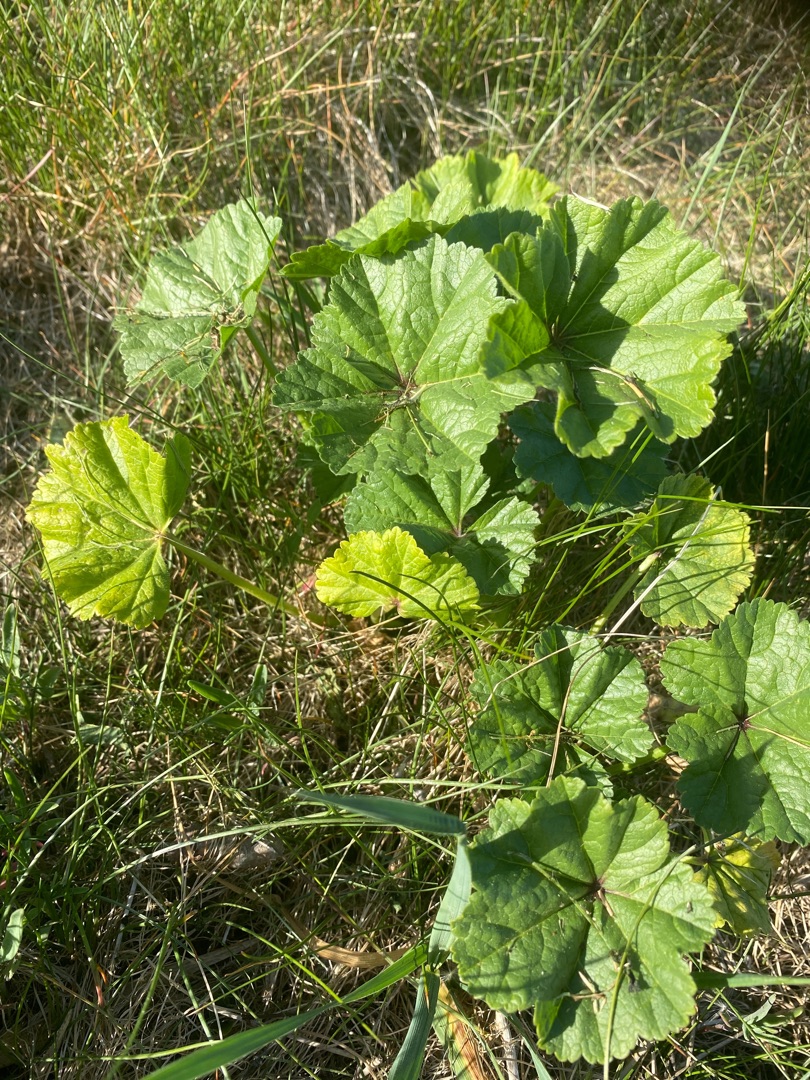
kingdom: Plantae
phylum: Tracheophyta
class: Magnoliopsida
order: Malvales
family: Malvaceae
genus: Malva
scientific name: Malva
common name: Katostslægten
